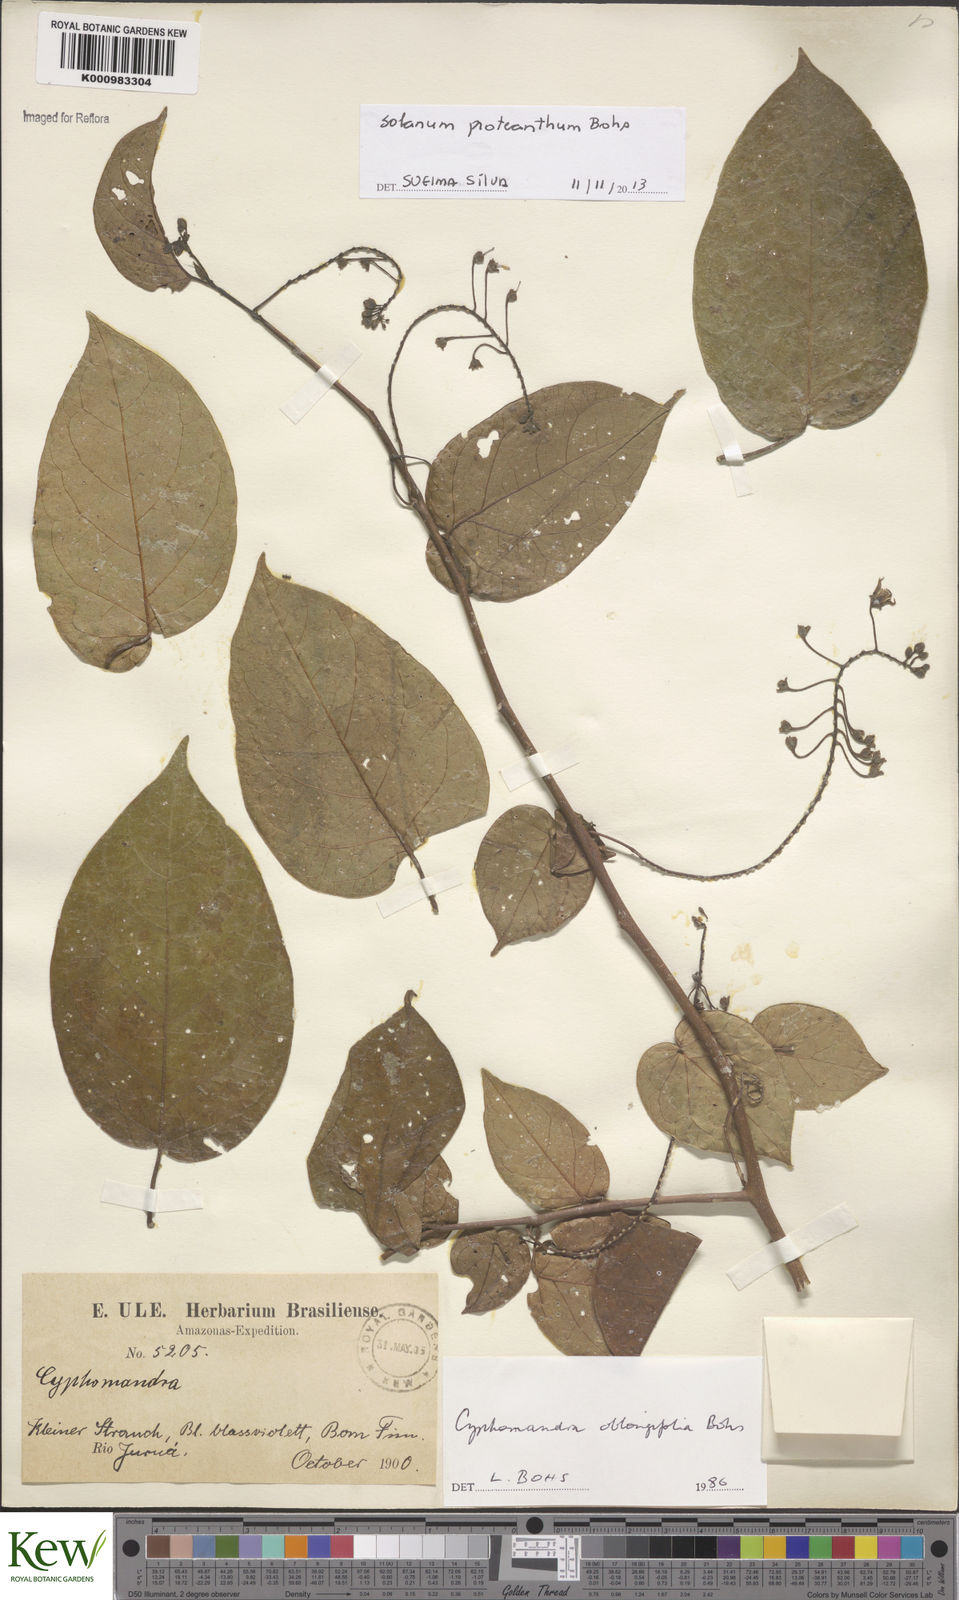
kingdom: Plantae
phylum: Tracheophyta
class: Magnoliopsida
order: Solanales
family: Solanaceae
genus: Solanum
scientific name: Solanum proteanthum
